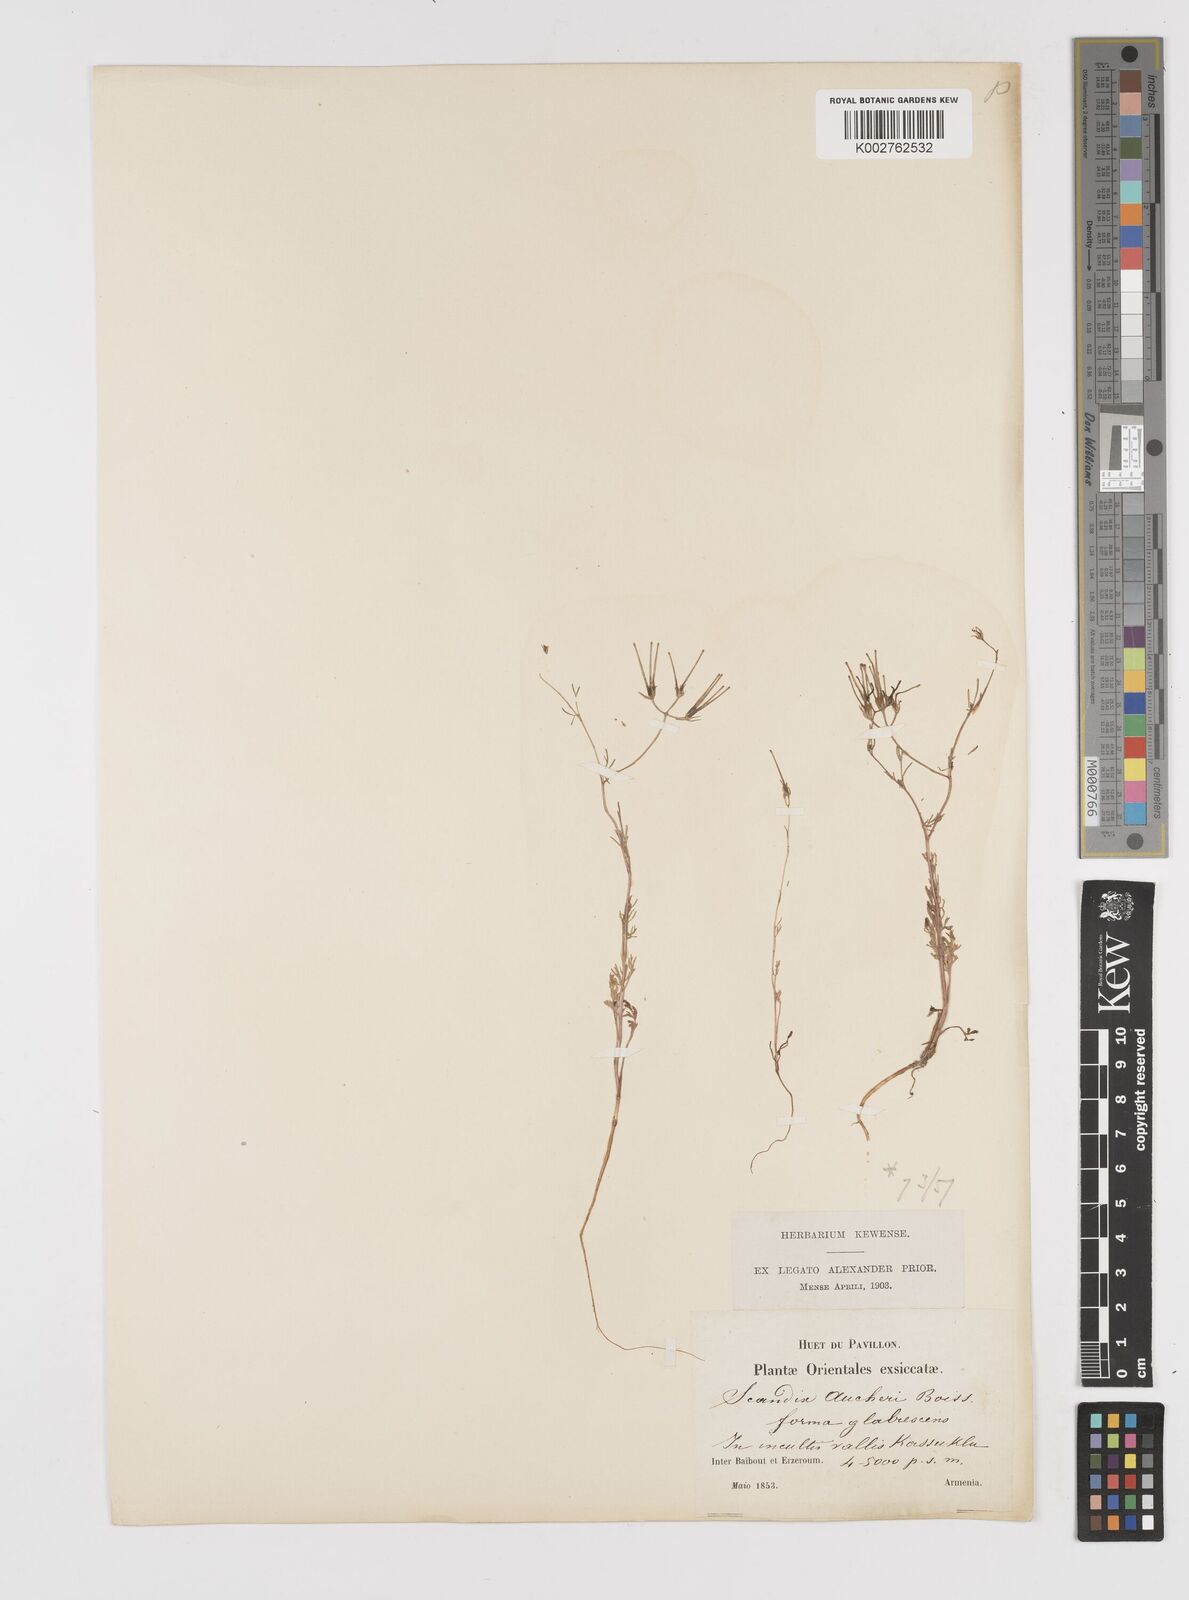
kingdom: Plantae
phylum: Tracheophyta
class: Magnoliopsida
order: Apiales
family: Apiaceae
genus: Scandix
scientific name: Scandix aucheri
